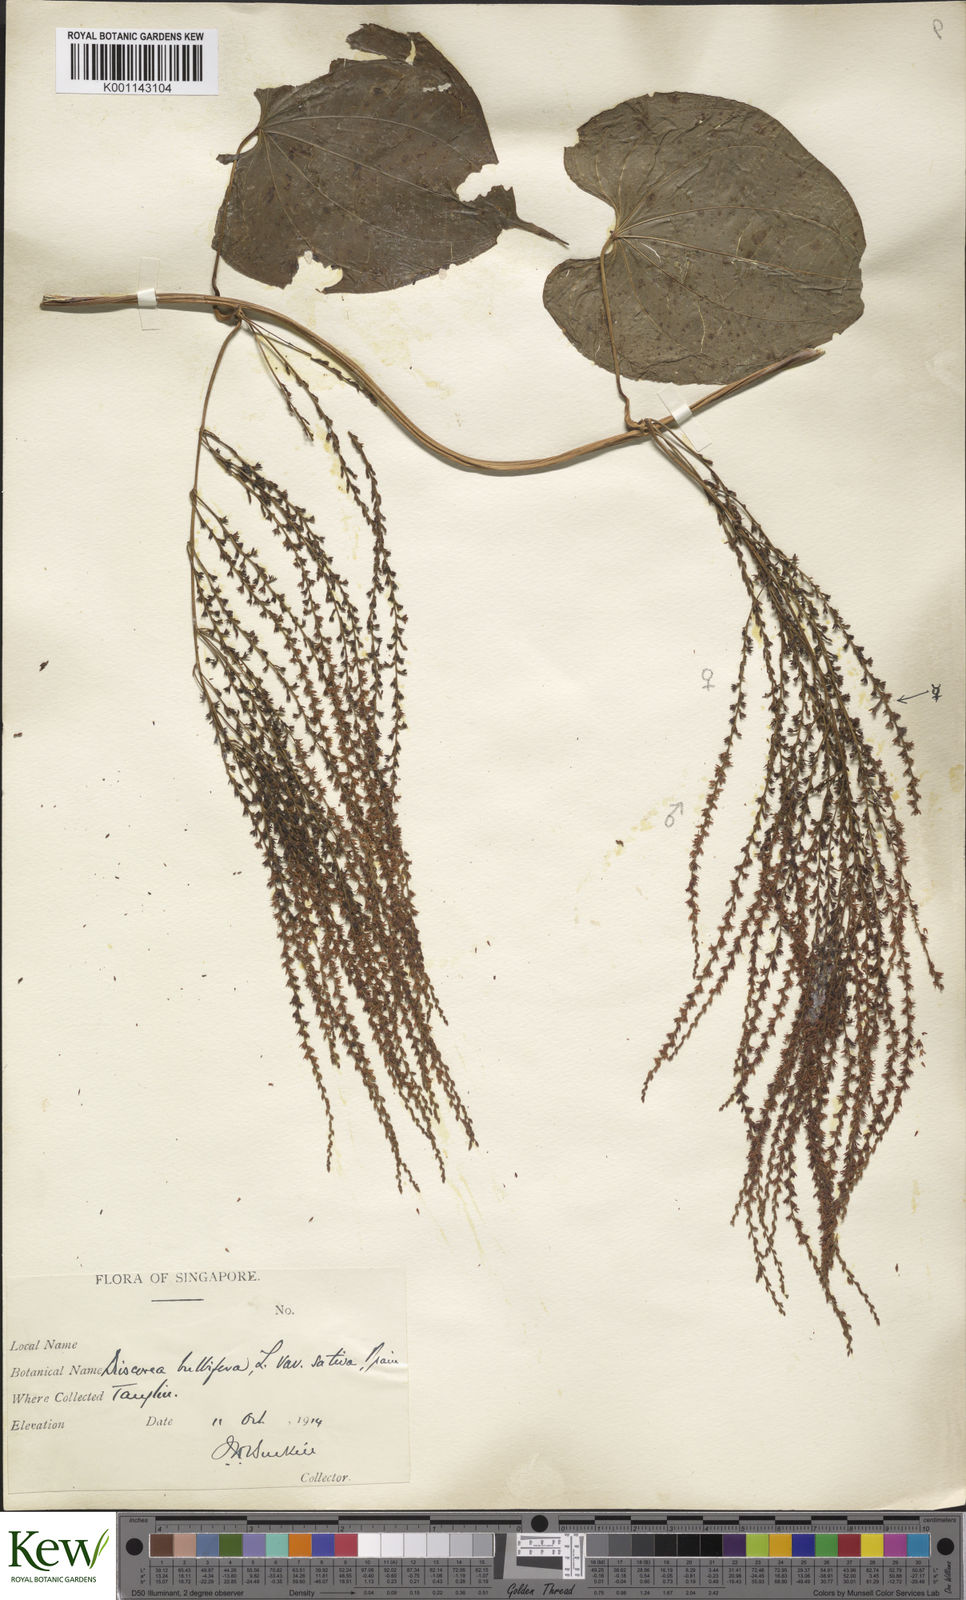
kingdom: Plantae
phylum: Tracheophyta
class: Liliopsida
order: Dioscoreales
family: Dioscoreaceae
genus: Dioscorea
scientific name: Dioscorea bulbifera
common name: Air yam
